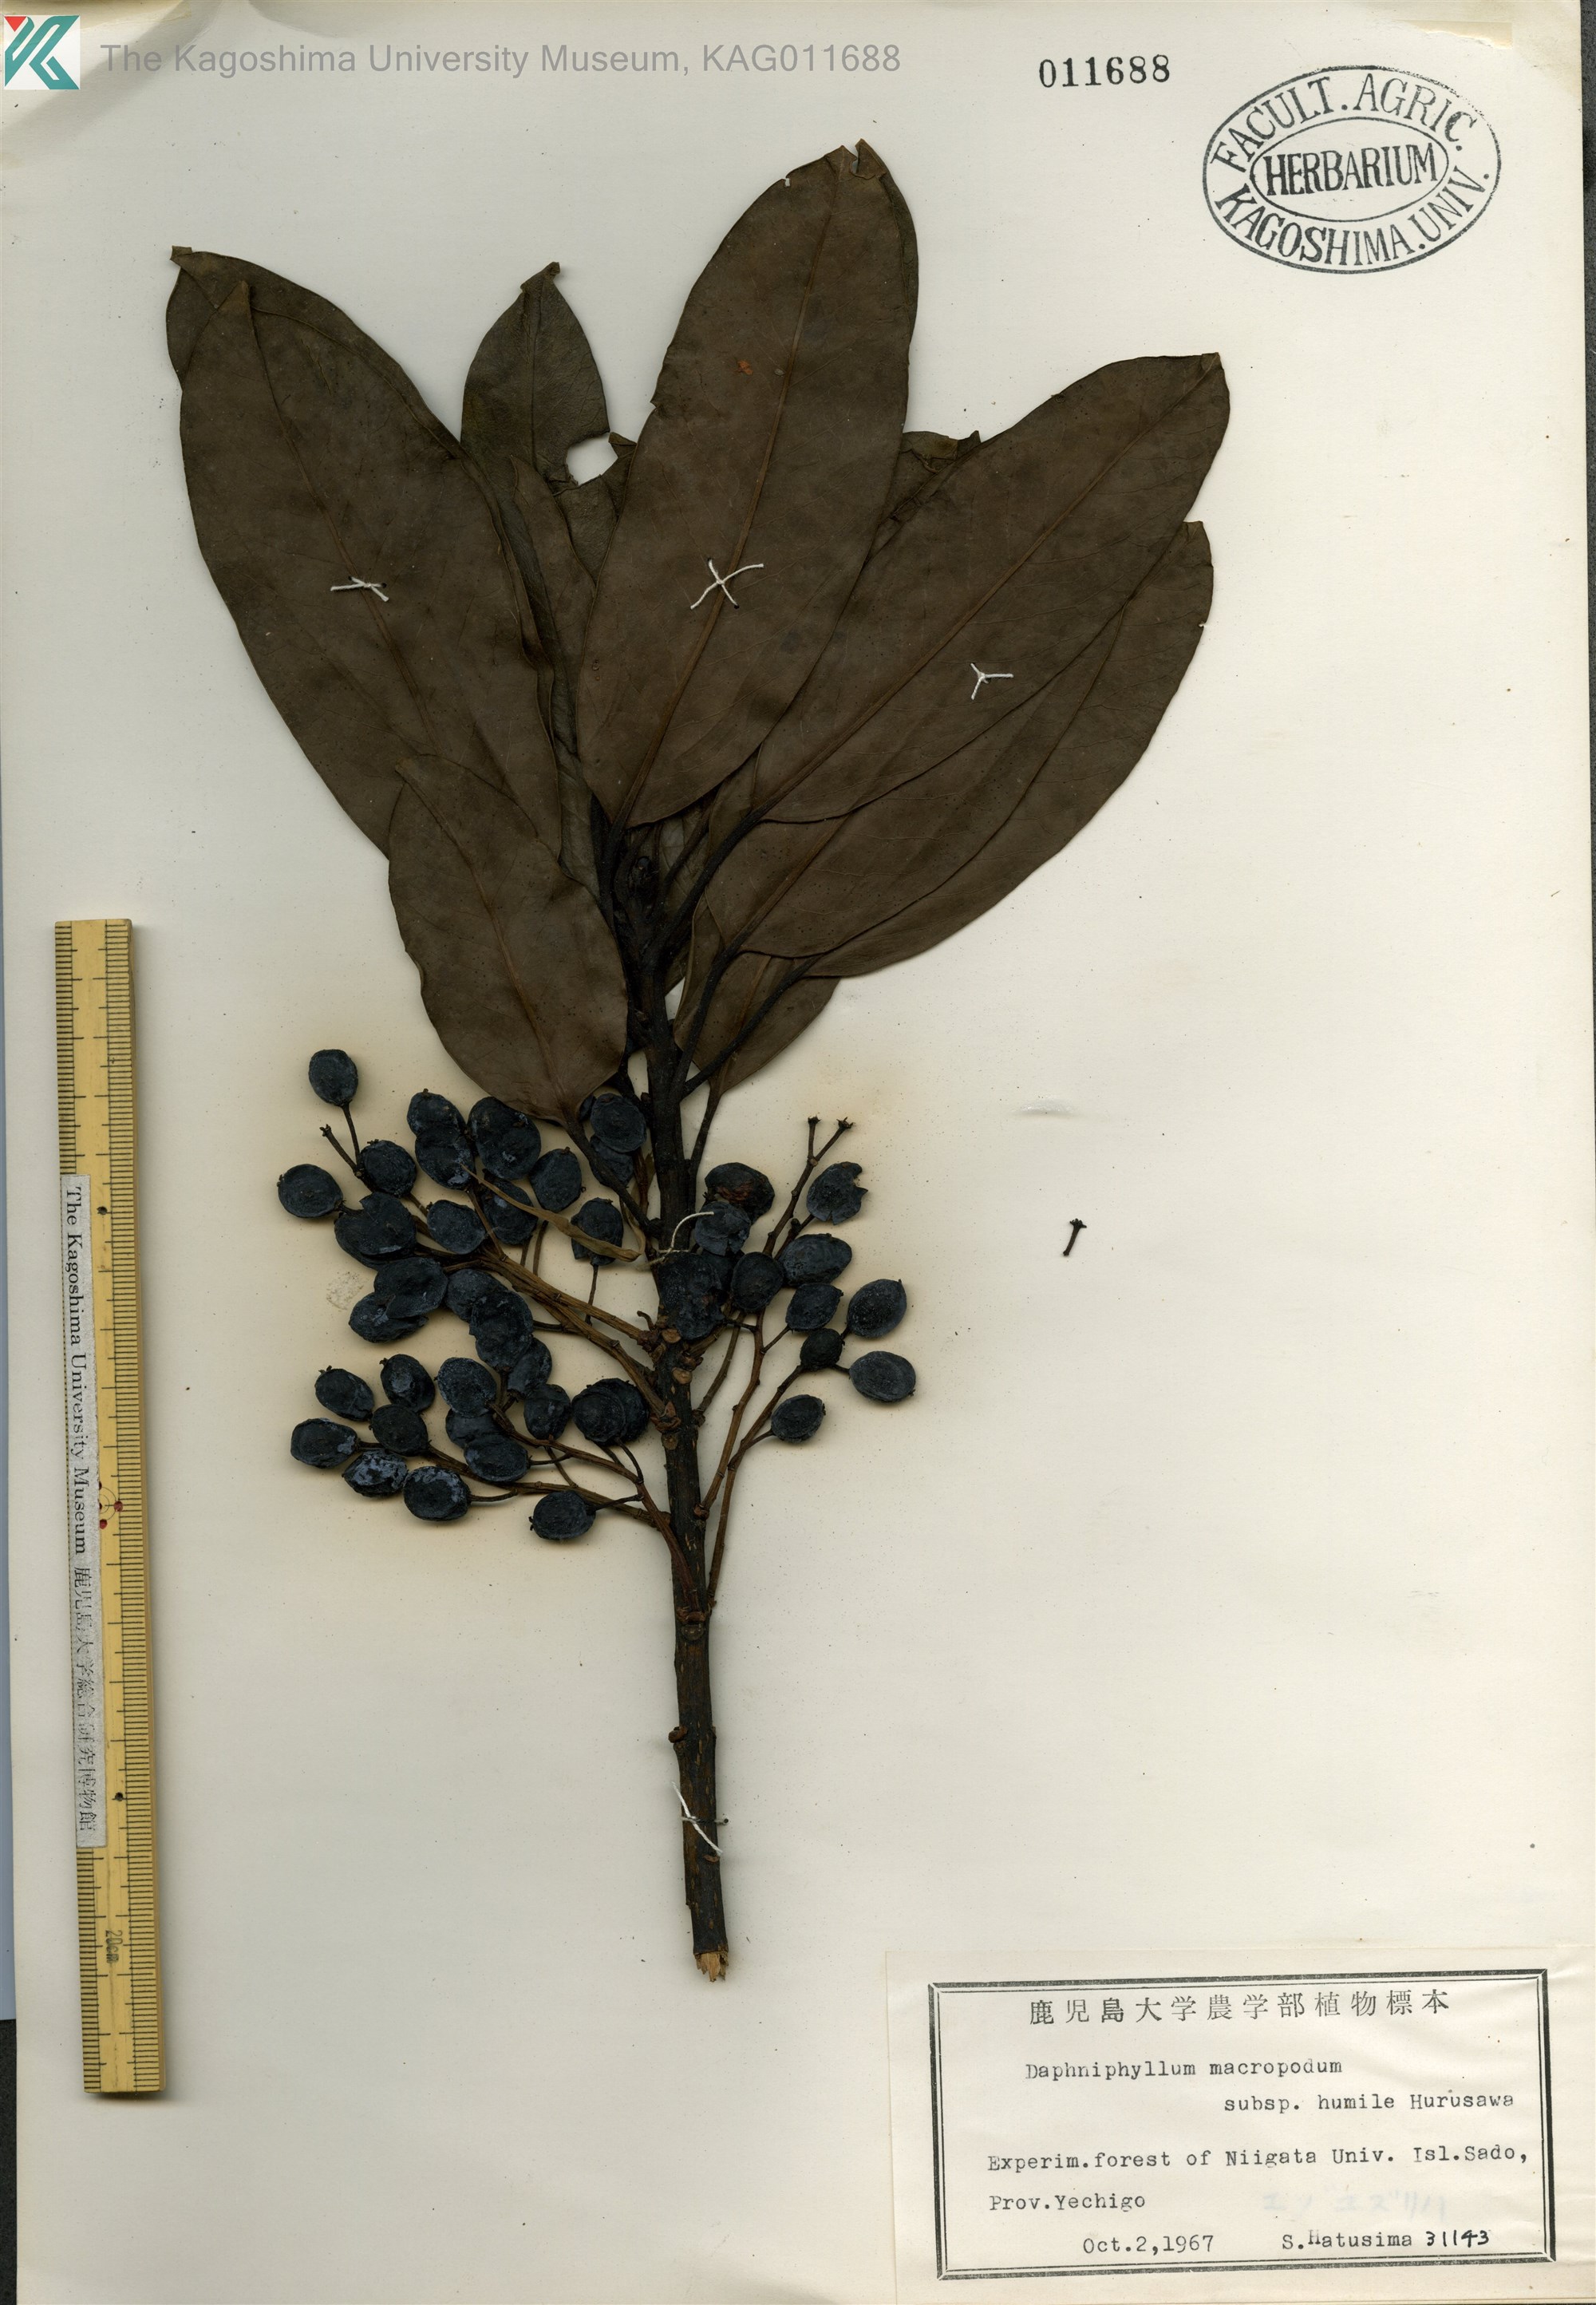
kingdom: Plantae
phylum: Tracheophyta
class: Magnoliopsida
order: Saxifragales
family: Daphniphyllaceae
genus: Daphniphyllum
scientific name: Daphniphyllum macropodum
